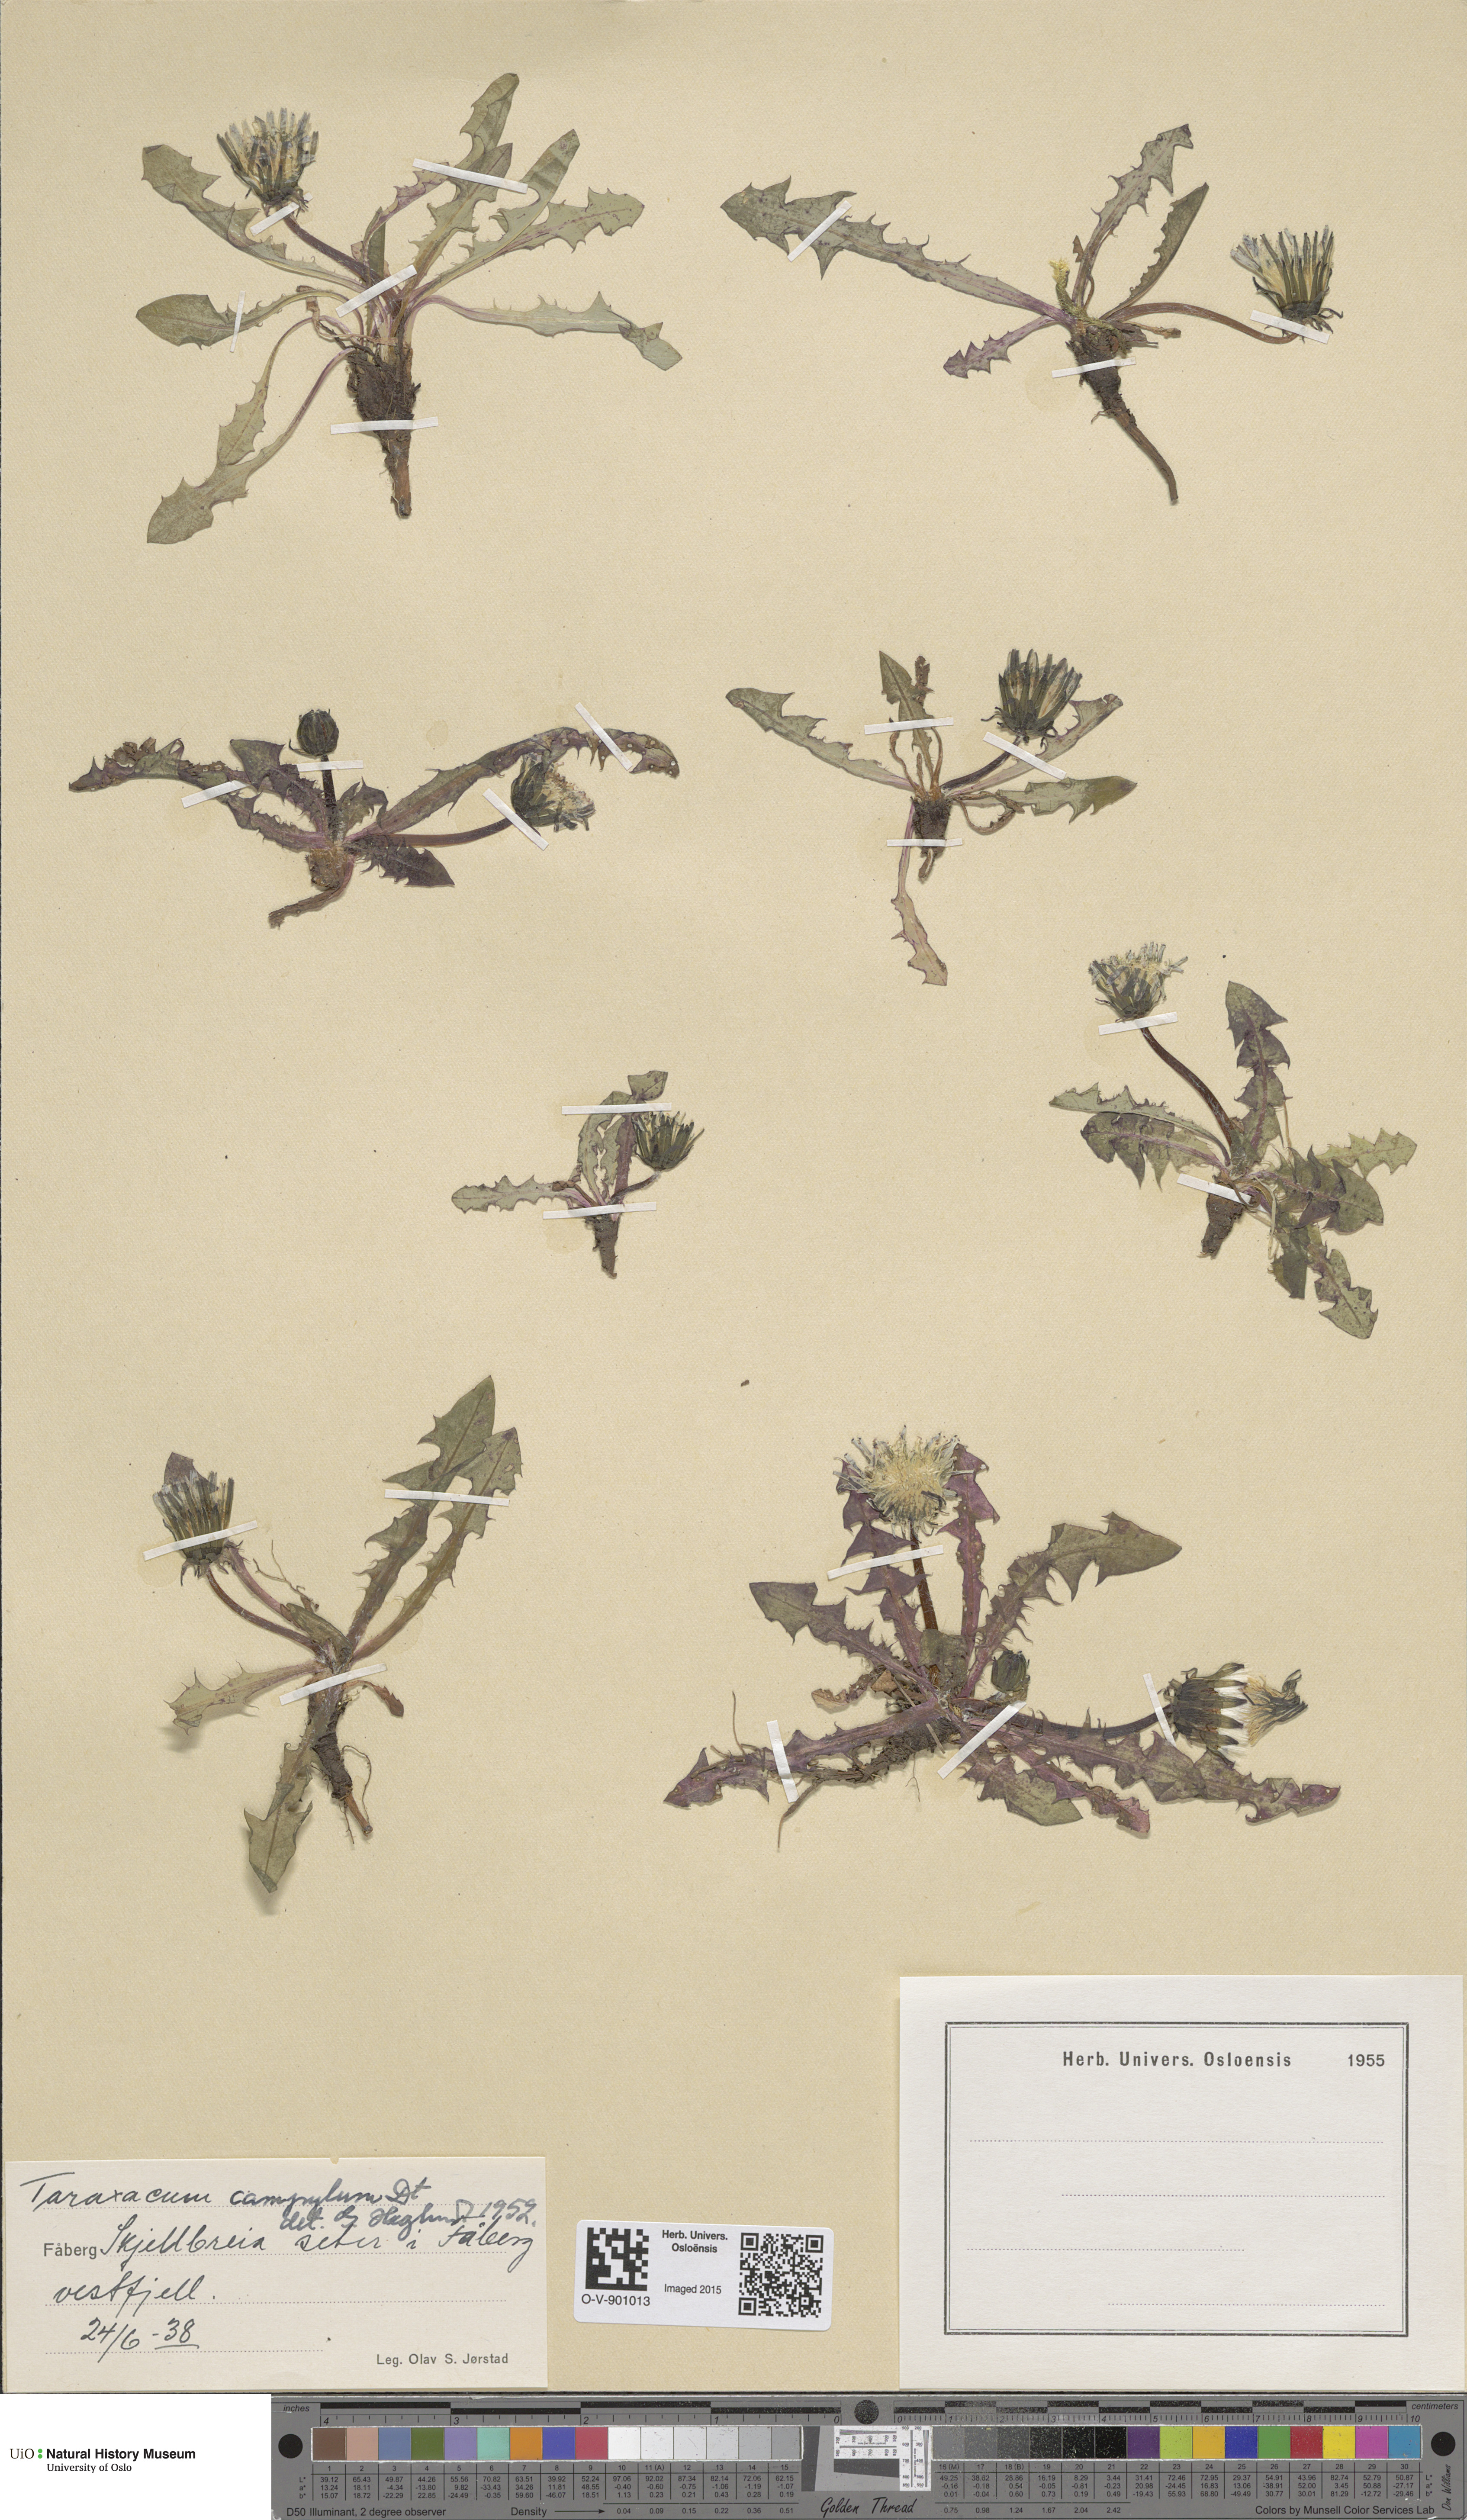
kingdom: Plantae
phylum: Tracheophyta
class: Magnoliopsida
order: Asterales
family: Asteraceae
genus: Taraxacum
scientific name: Taraxacum oxylobium
